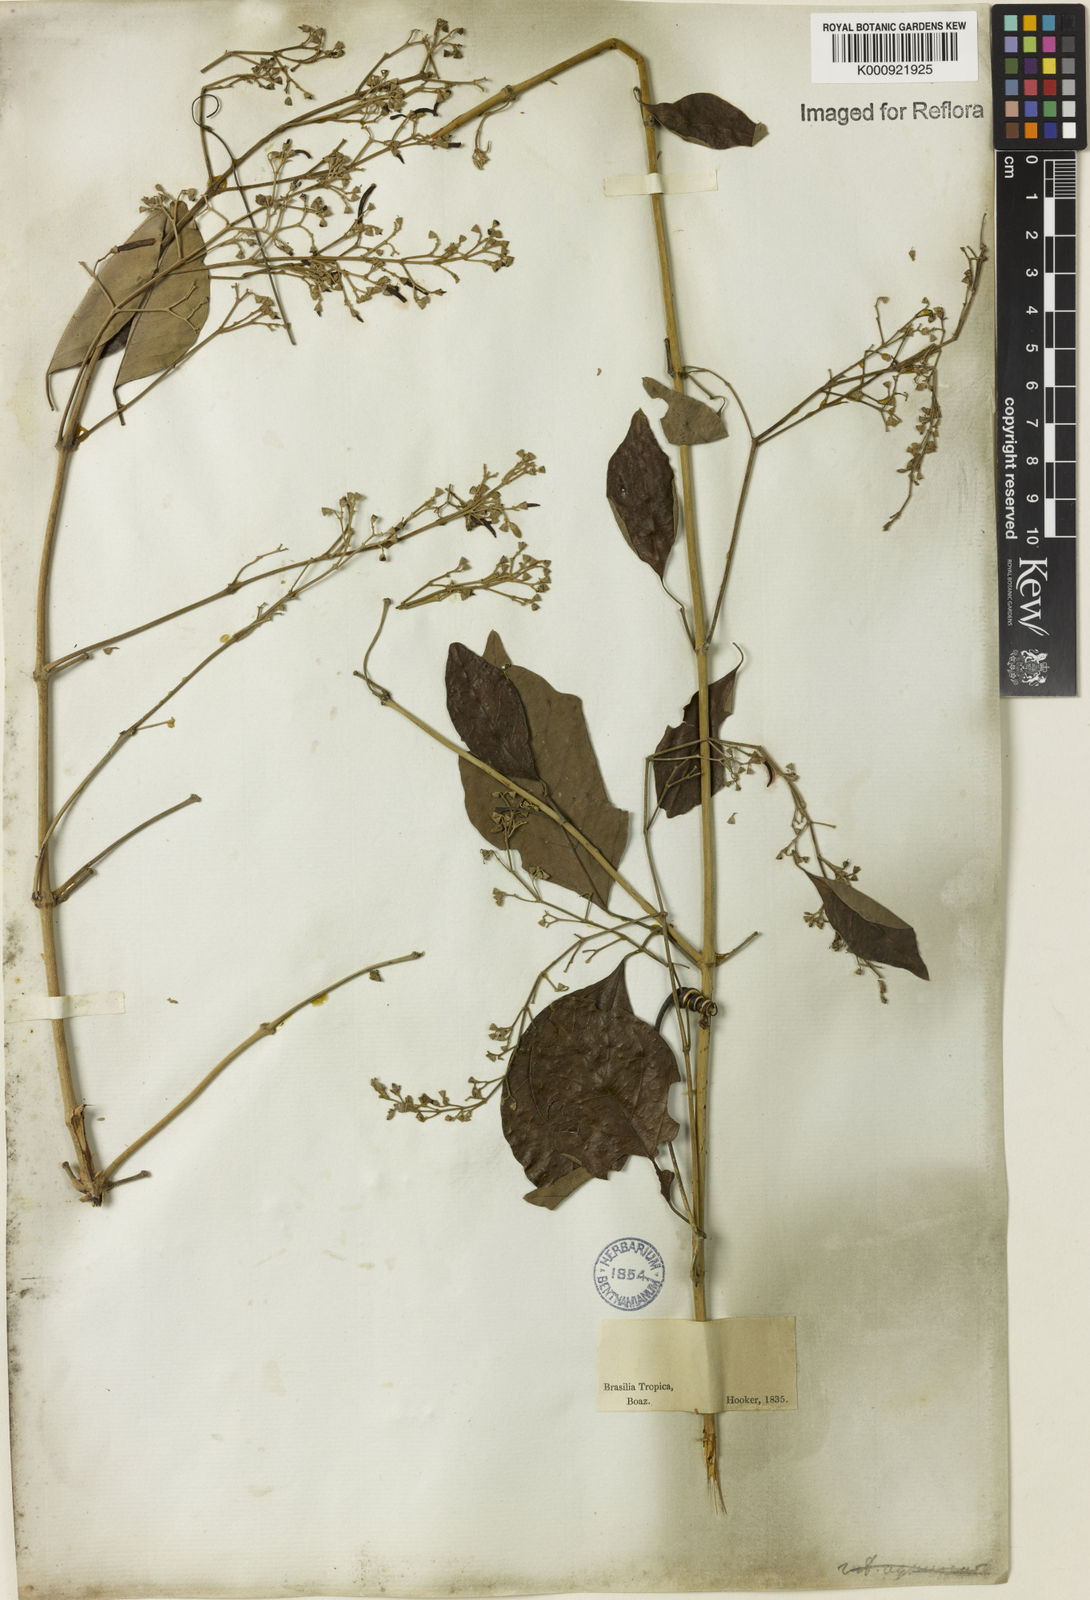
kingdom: Plantae
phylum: Tracheophyta
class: Magnoliopsida
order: Rosales
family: Rhamnaceae
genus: Arrabidaea
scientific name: Arrabidaea
